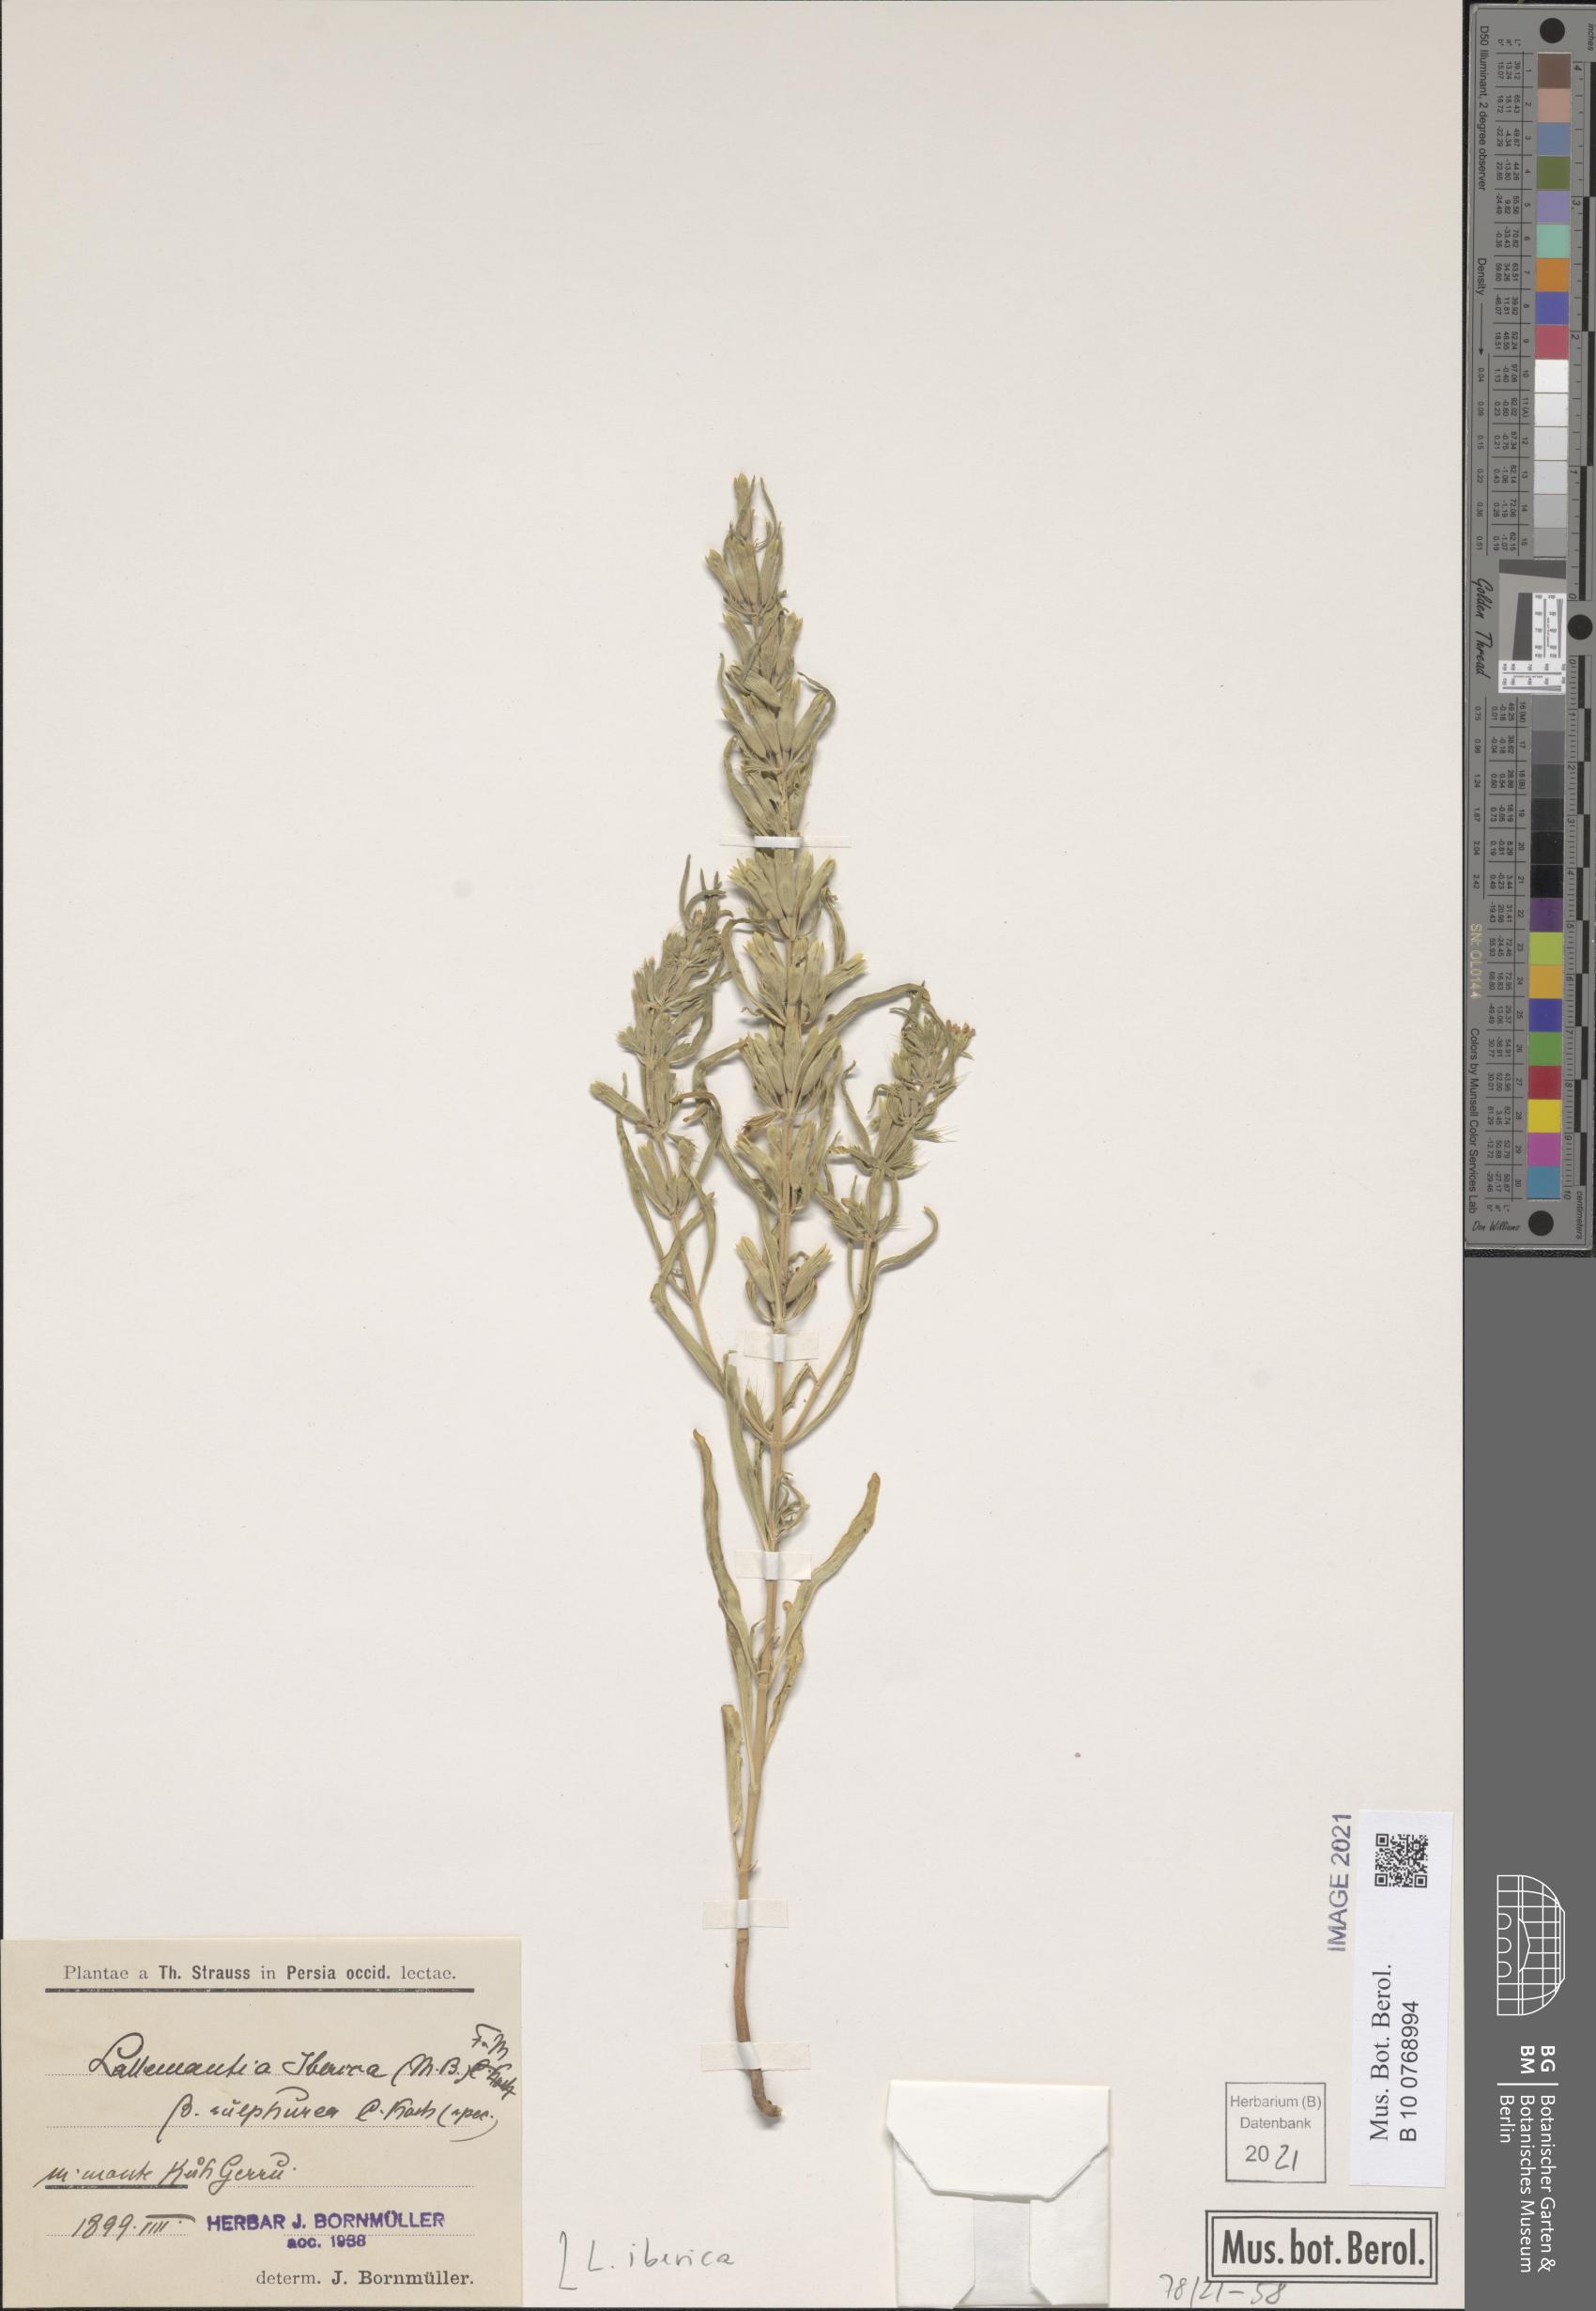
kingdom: Plantae
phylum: Tracheophyta
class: Magnoliopsida
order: Lamiales
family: Lamiaceae
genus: Lallemantia
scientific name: Lallemantia iberica
